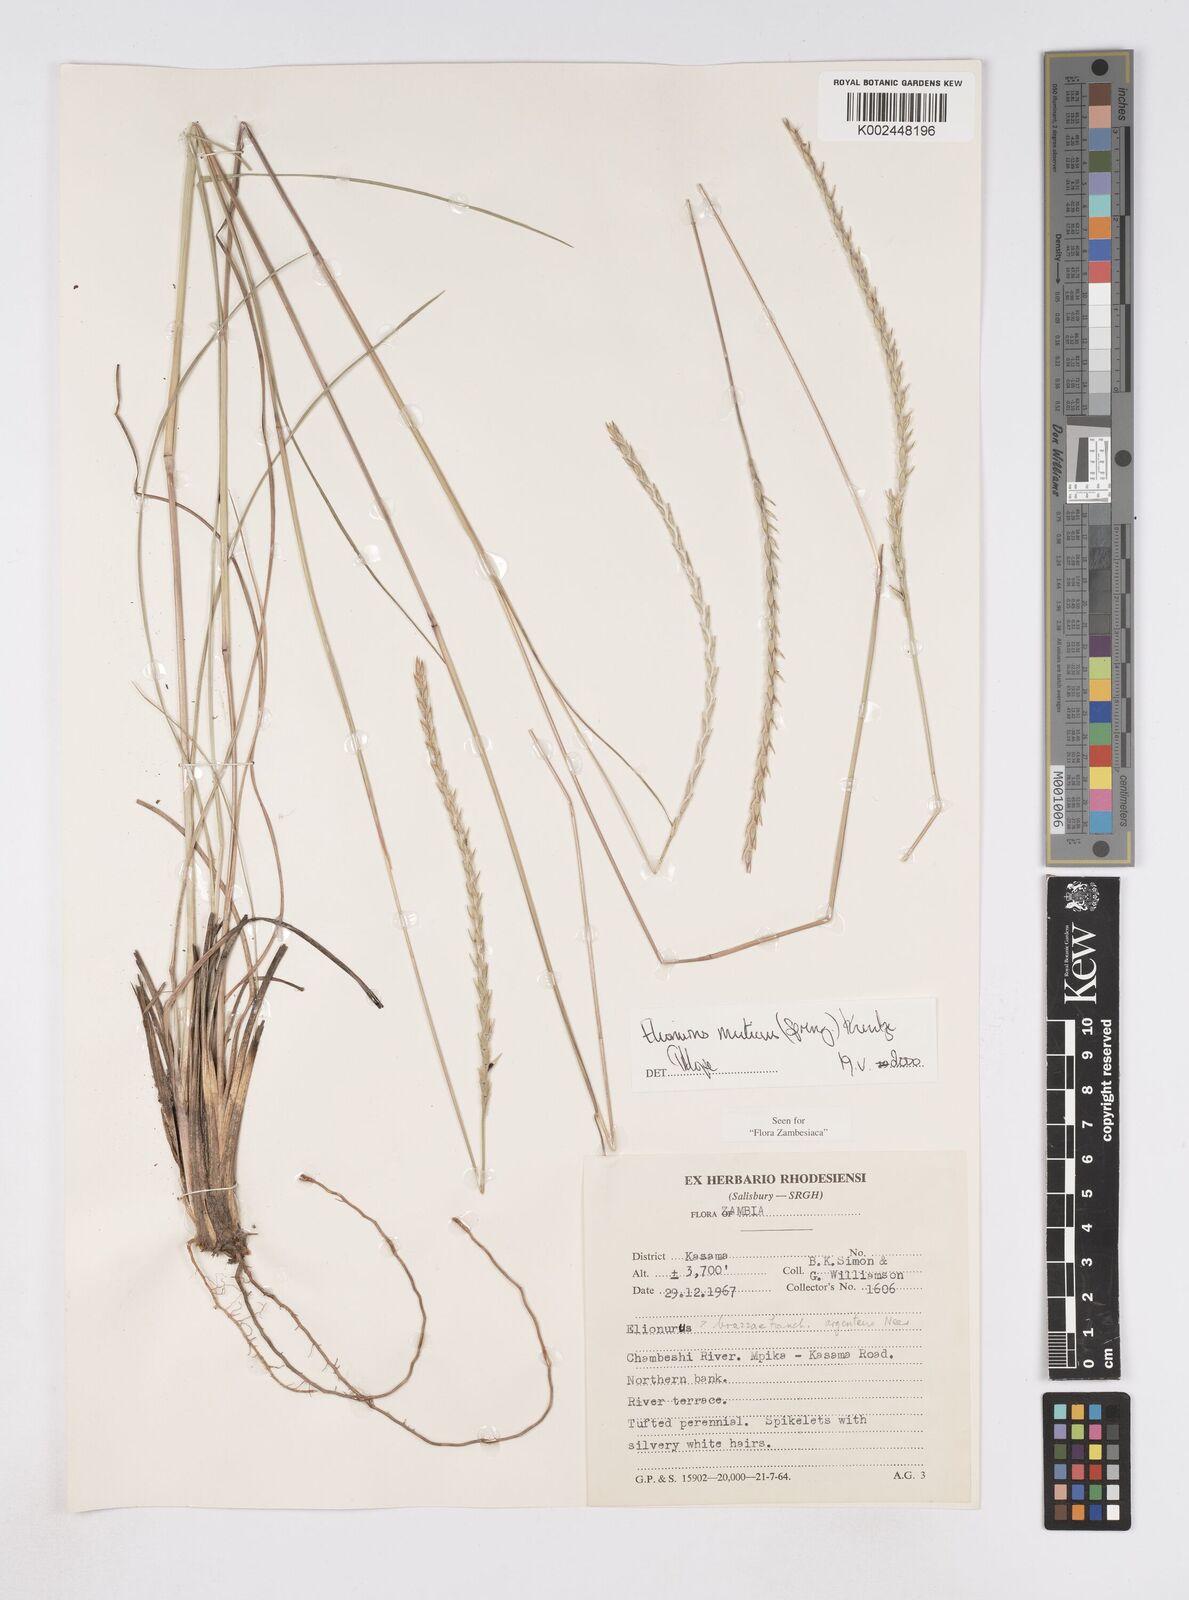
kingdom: Plantae
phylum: Tracheophyta
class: Liliopsida
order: Poales
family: Poaceae
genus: Elionurus
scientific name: Elionurus muticus
